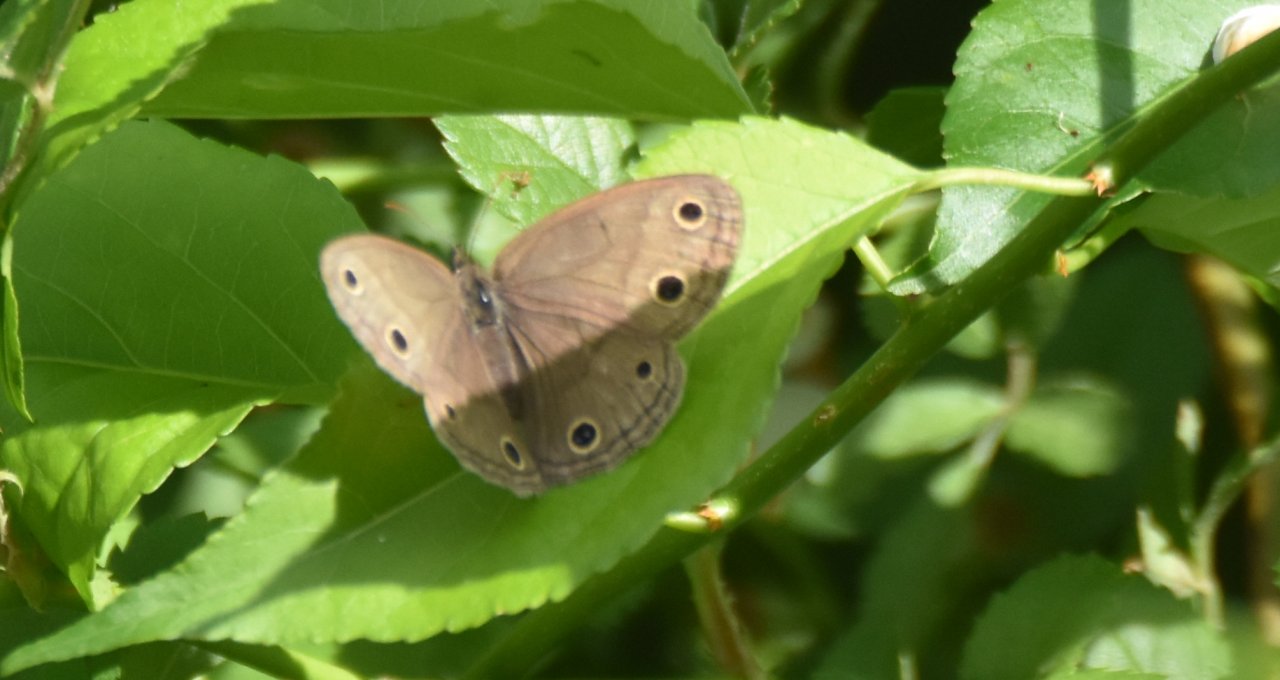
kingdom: Animalia
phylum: Arthropoda
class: Insecta
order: Lepidoptera
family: Nymphalidae
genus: Euptychia
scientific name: Euptychia cymela
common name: Little Wood Satyr
